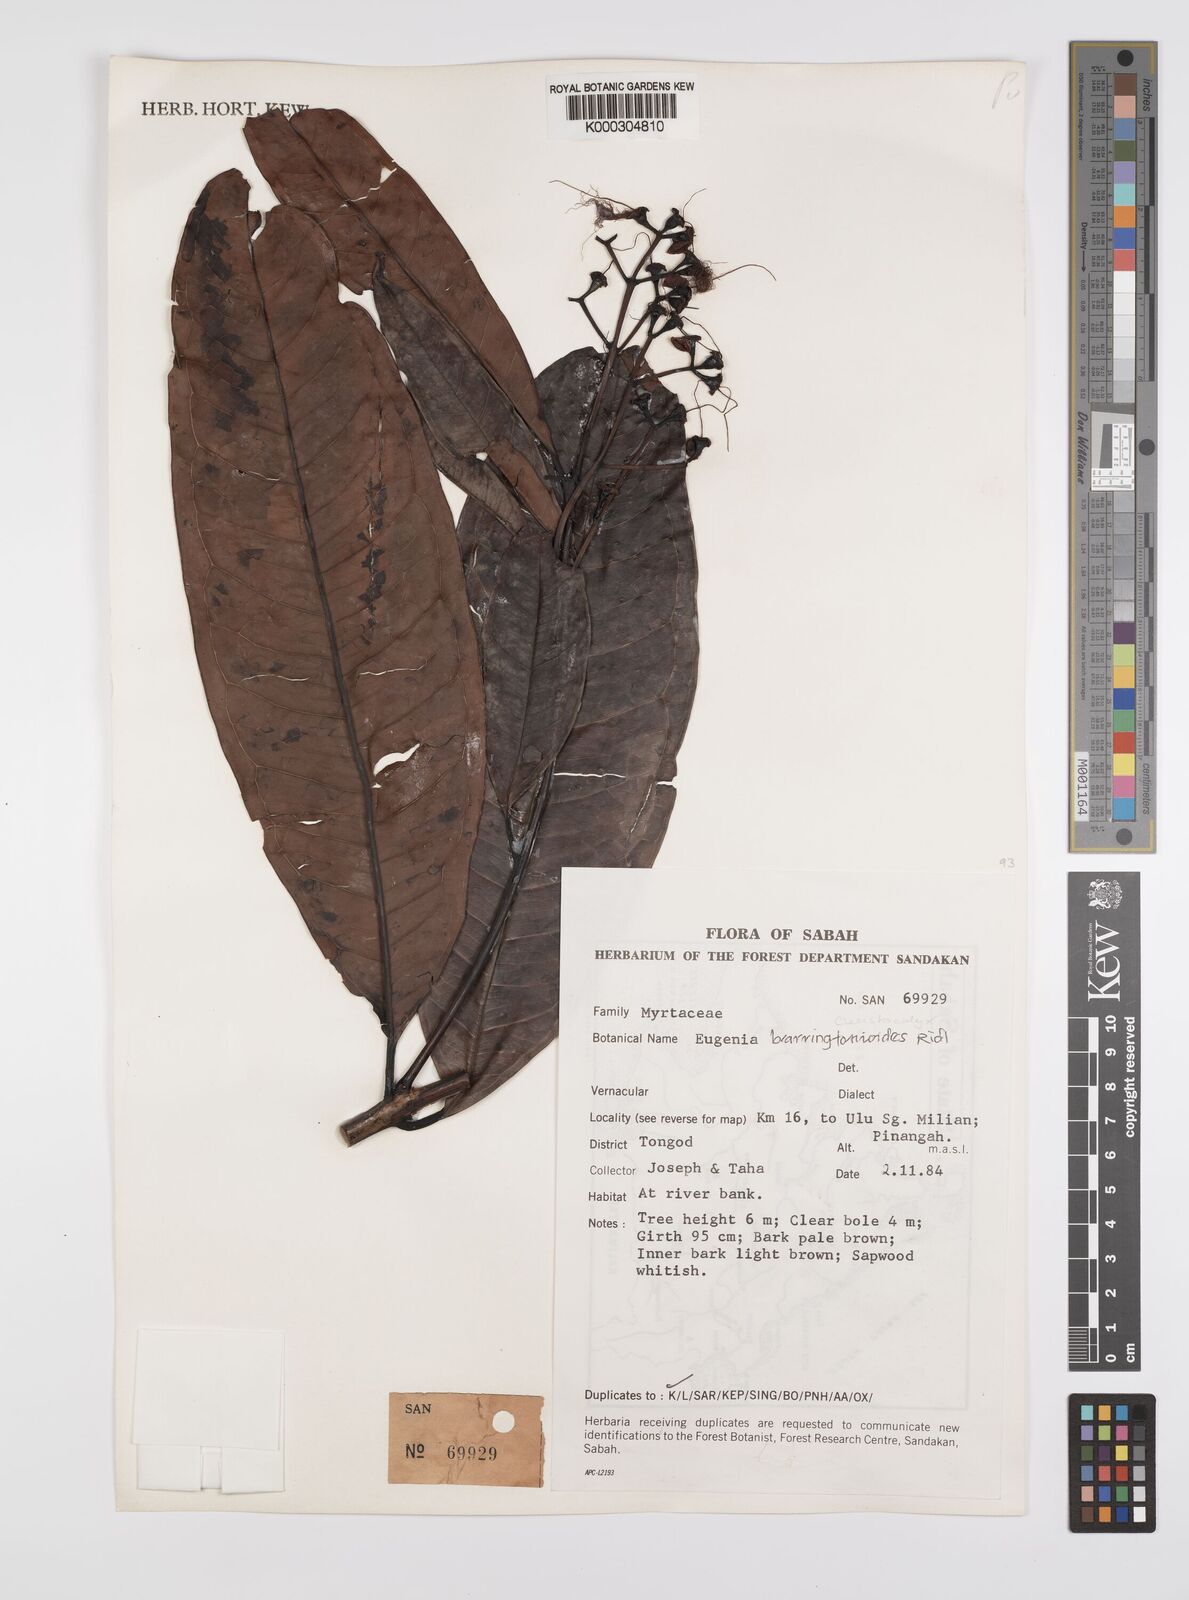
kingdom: Plantae
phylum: Tracheophyta
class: Magnoliopsida
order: Myrtales
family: Myrtaceae
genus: Syzygium
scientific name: Syzygium barringtonioides
